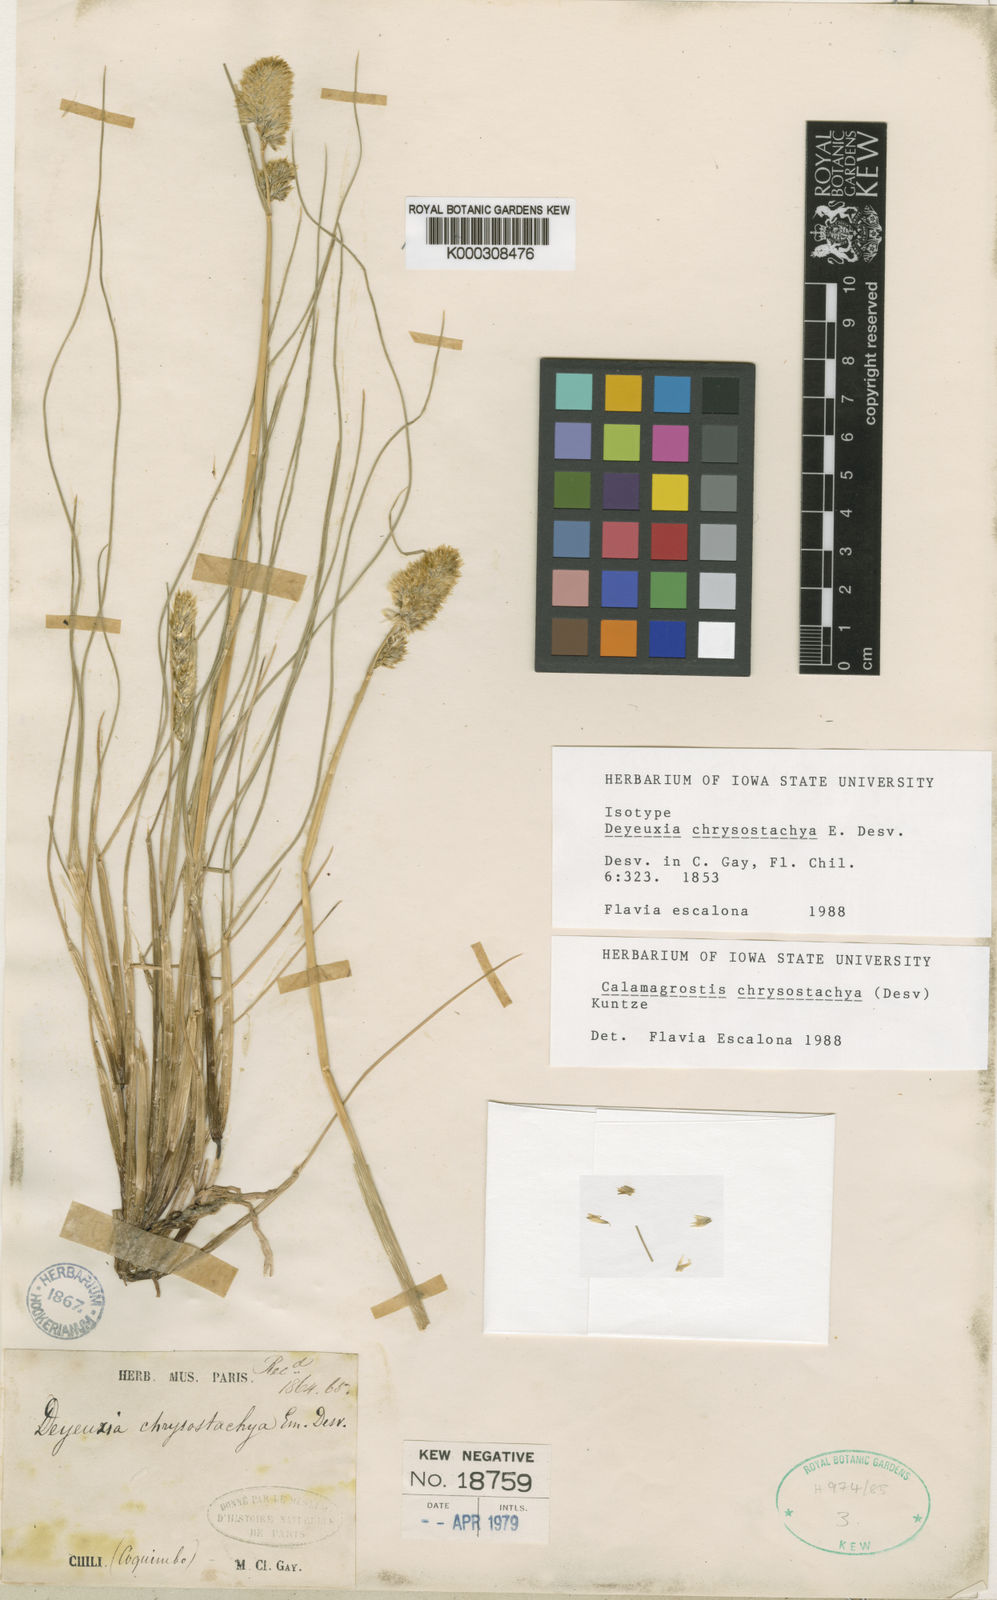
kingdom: Plantae
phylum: Tracheophyta
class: Liliopsida
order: Poales
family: Poaceae
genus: Deschampsia
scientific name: Deschampsia chrysantha
